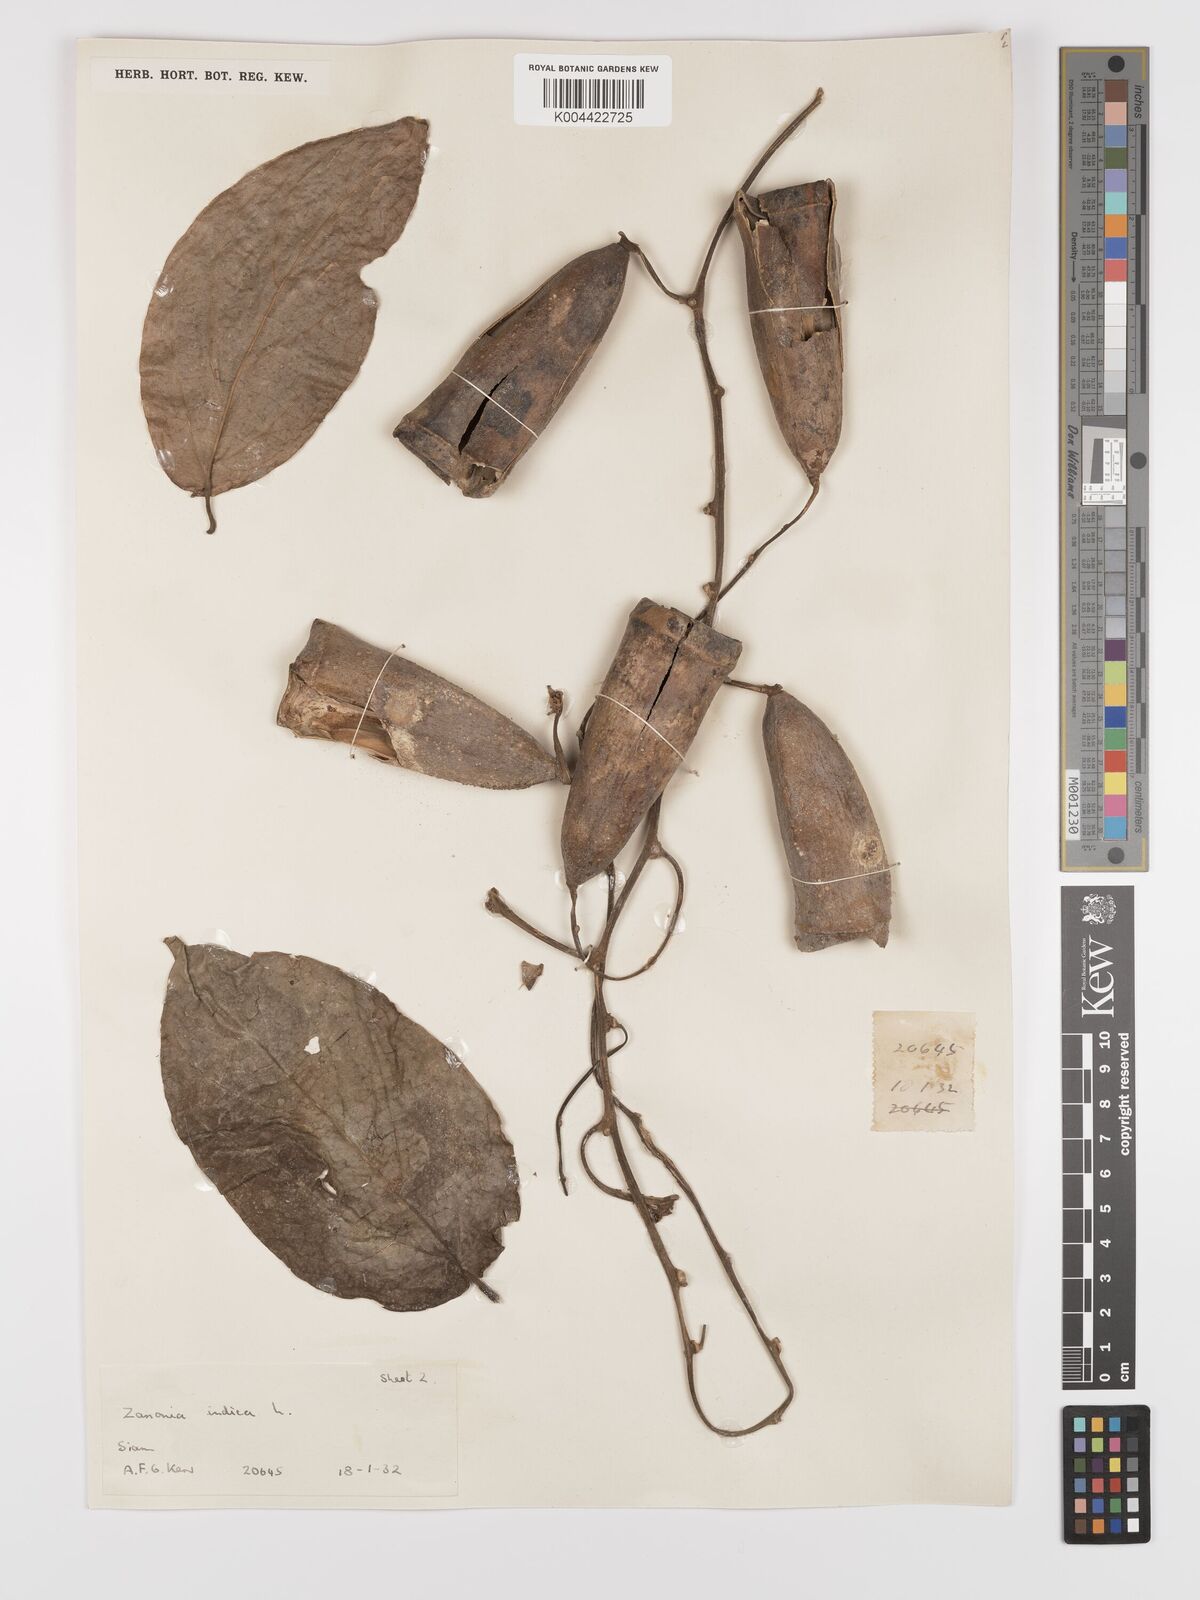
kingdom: Plantae
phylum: Tracheophyta
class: Magnoliopsida
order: Cucurbitales
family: Cucurbitaceae
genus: Zanonia
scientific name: Zanonia indica
